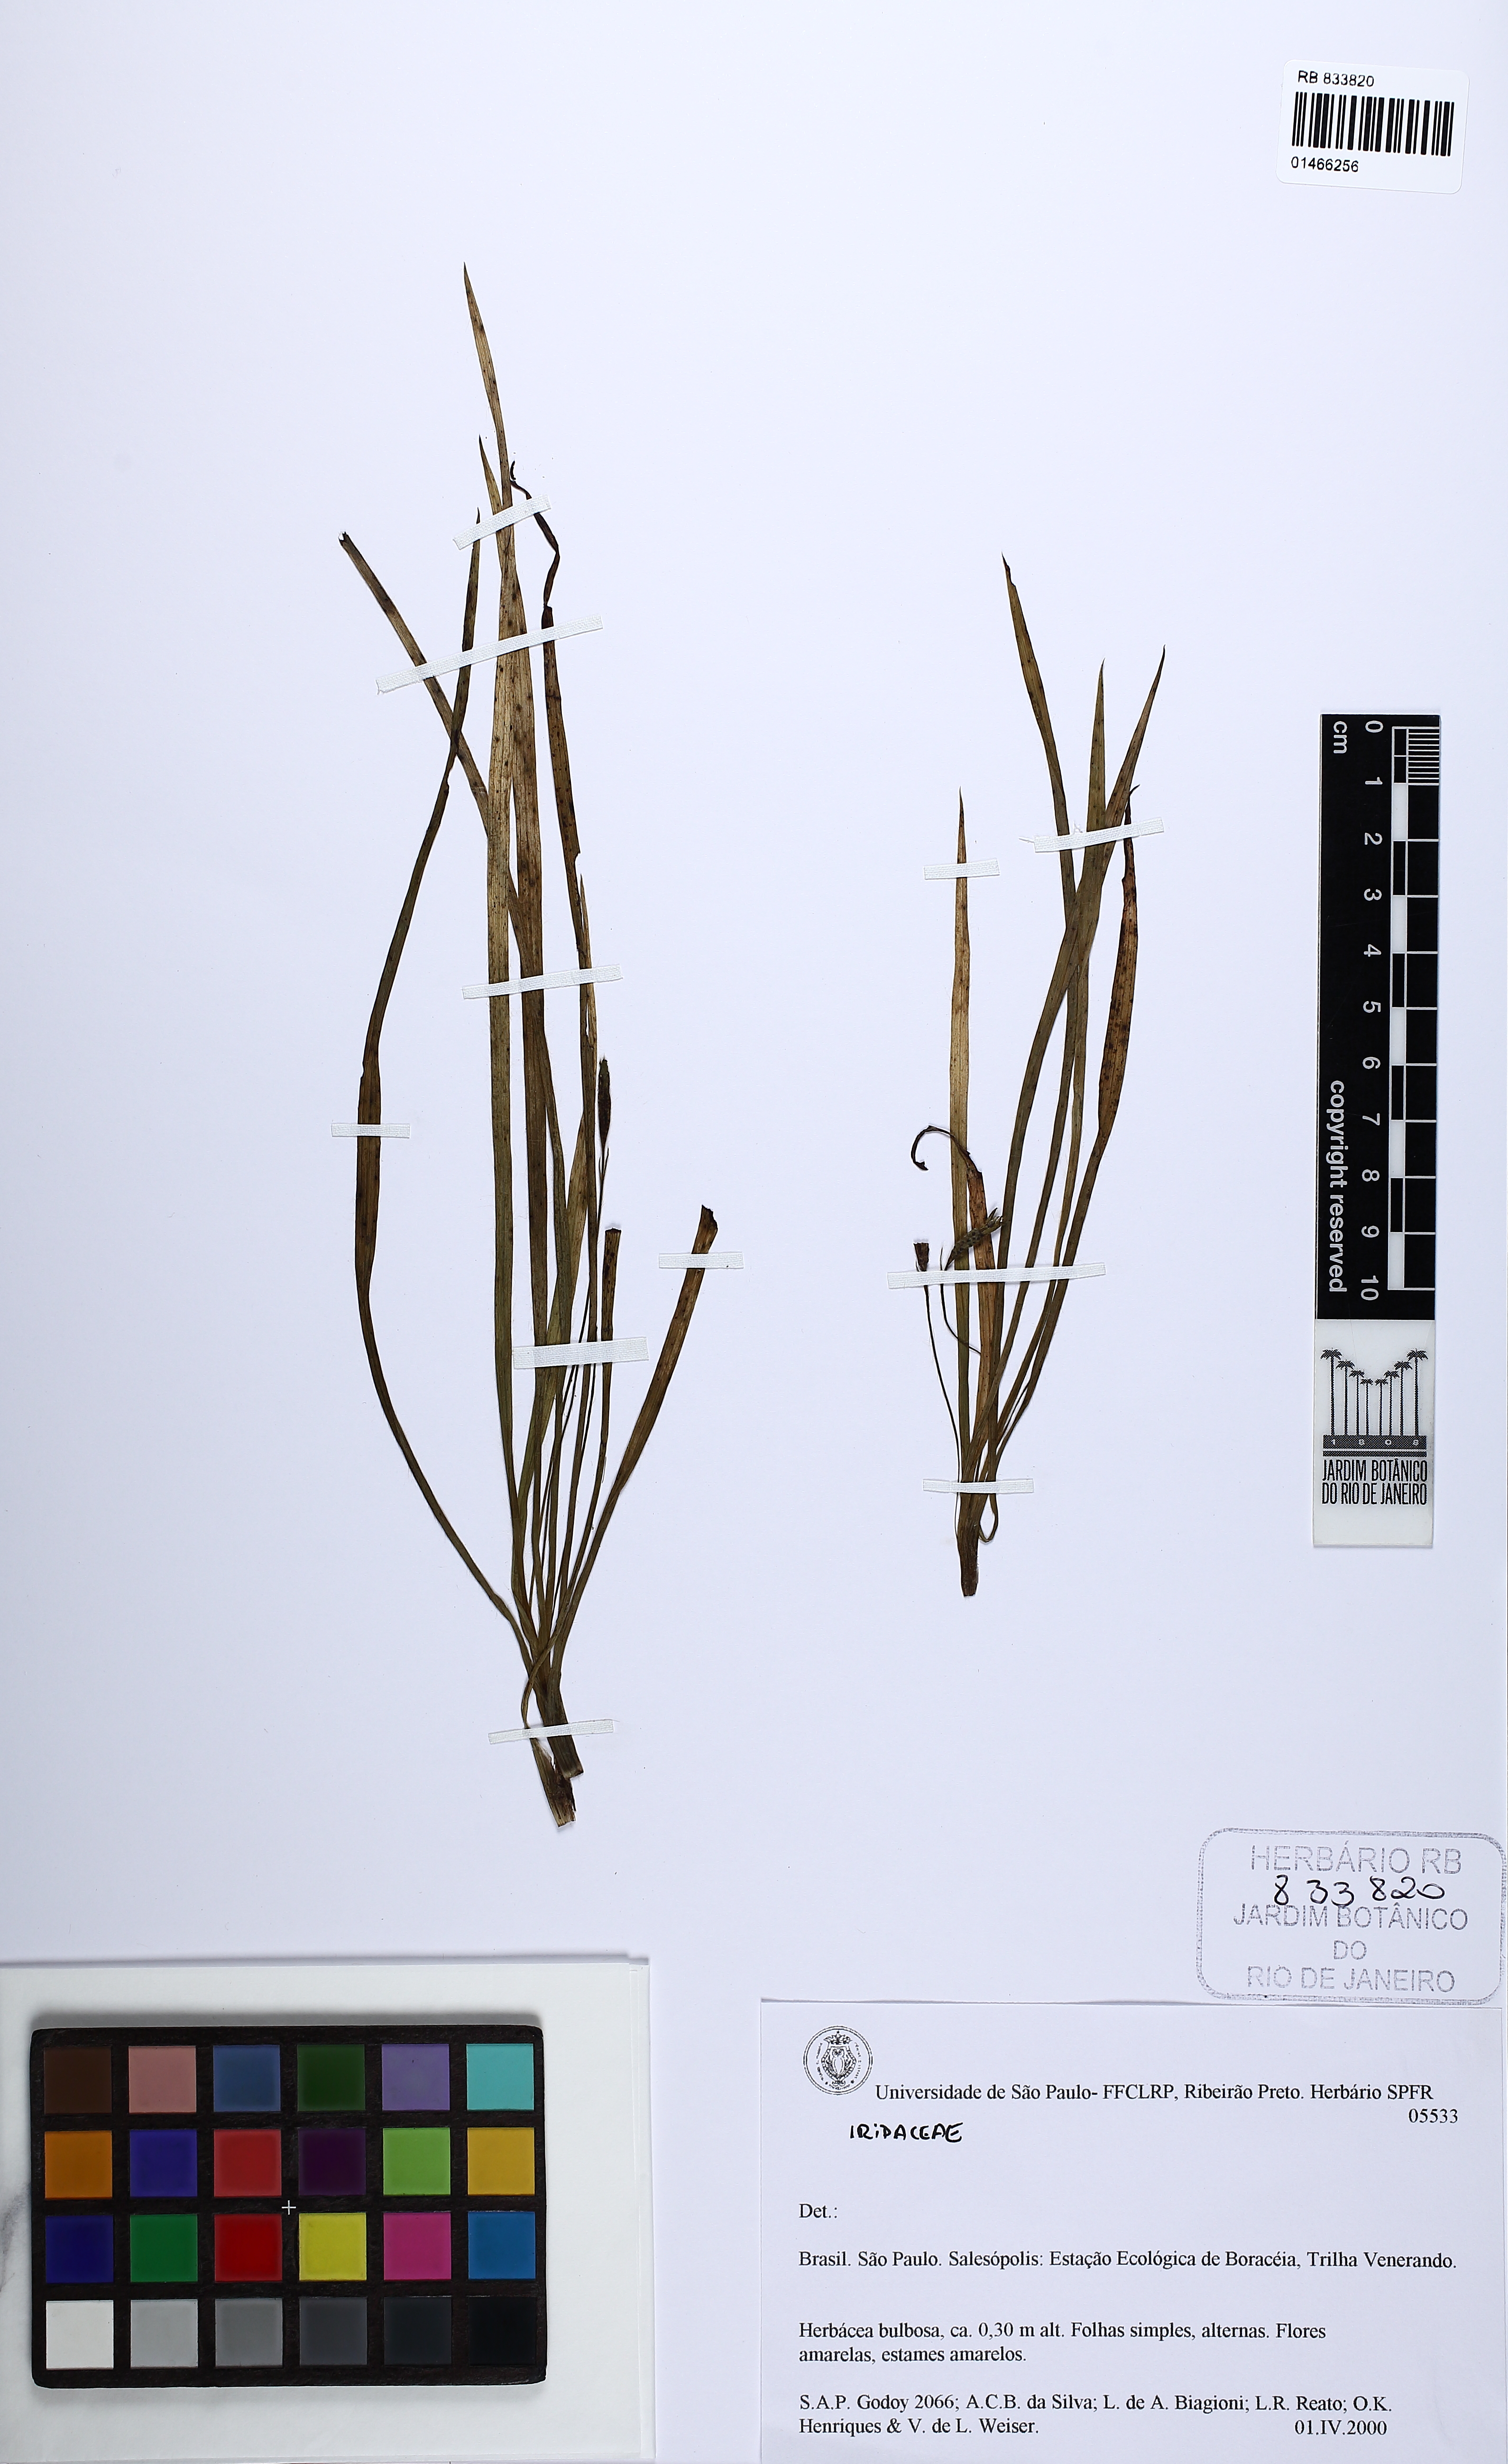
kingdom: Plantae
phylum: Tracheophyta
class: Liliopsida
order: Asparagales
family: Iridaceae
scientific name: Iridaceae
